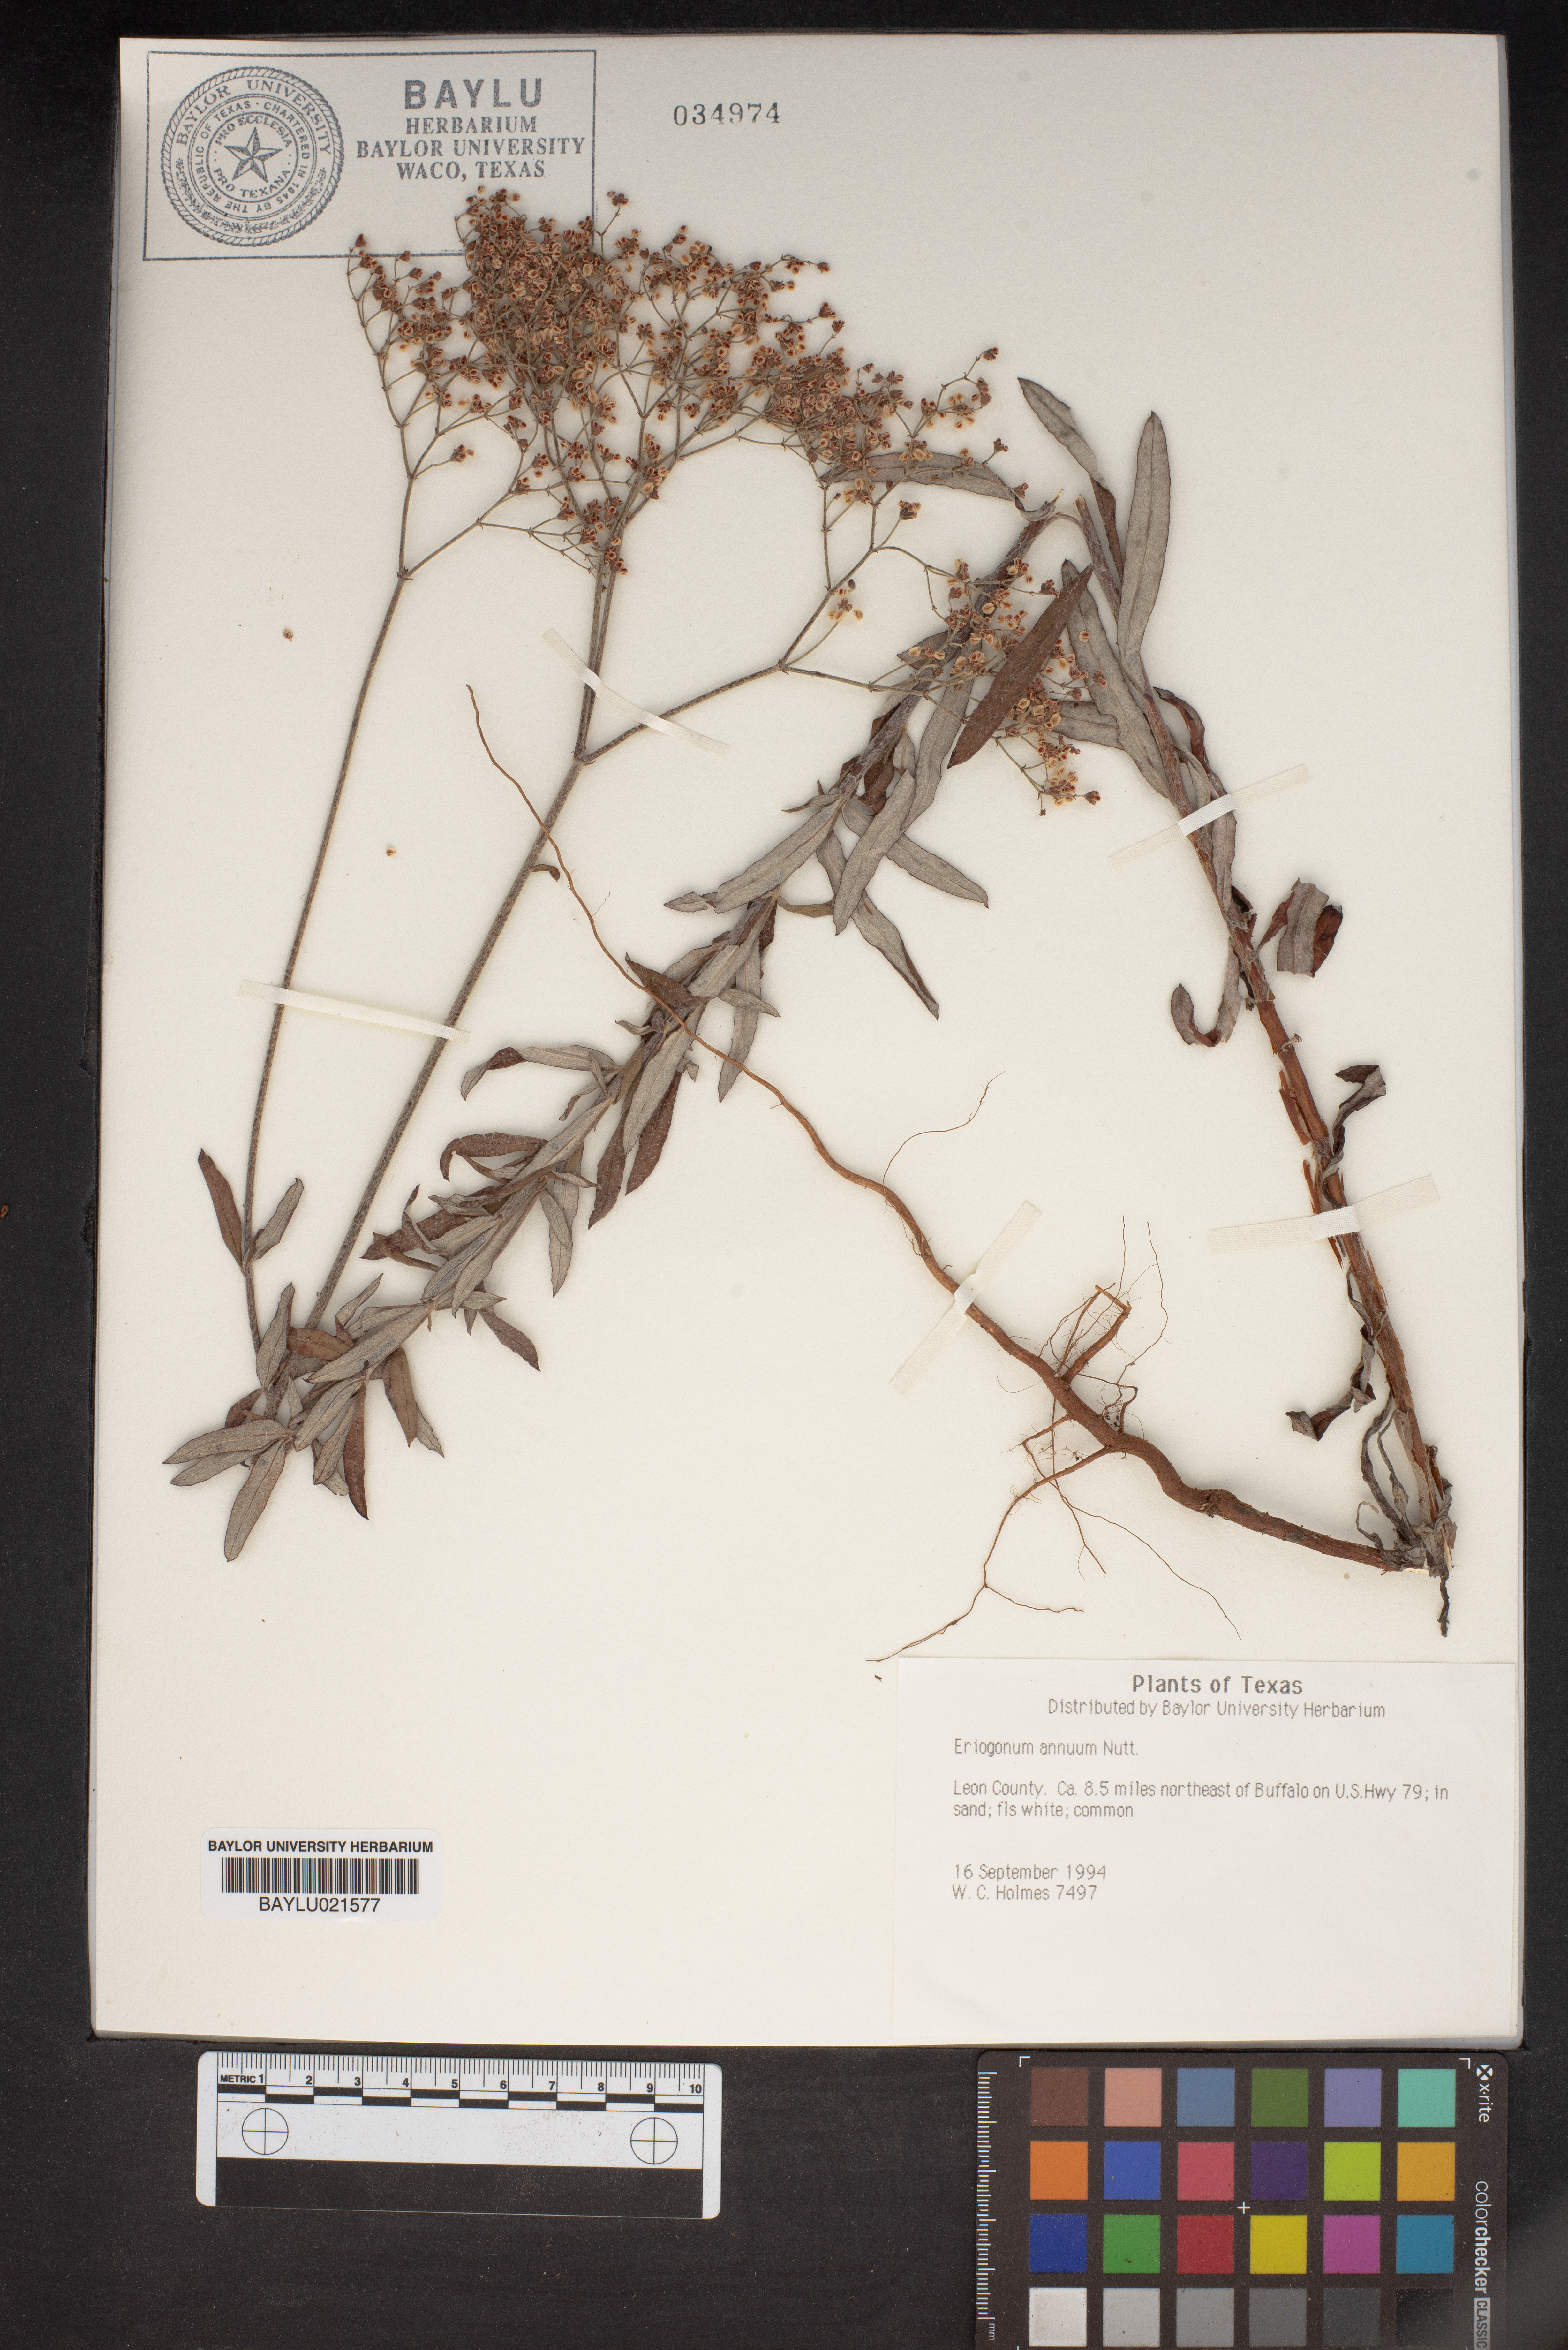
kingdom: Plantae
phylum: Tracheophyta
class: Magnoliopsida
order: Caryophyllales
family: Polygonaceae
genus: Eriogonum
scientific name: Eriogonum annuum
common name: Annual wild buckwheat
